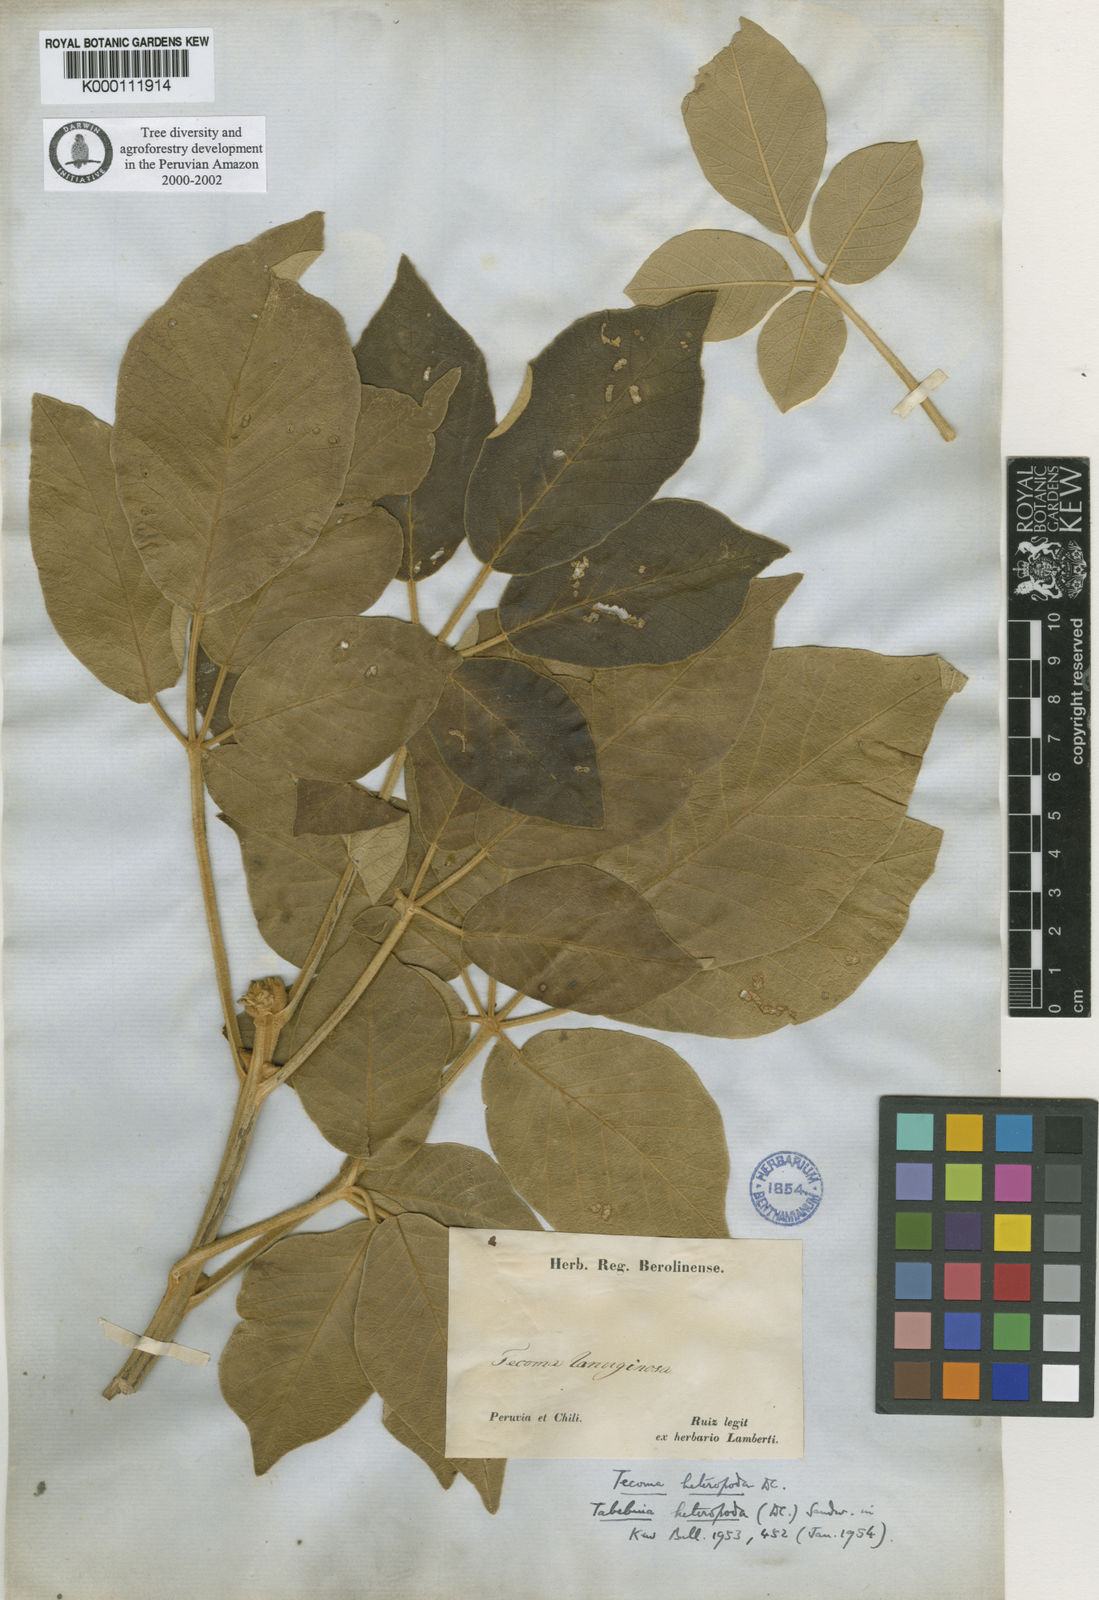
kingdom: Plantae
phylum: Tracheophyta
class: Magnoliopsida
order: Lamiales
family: Bignoniaceae
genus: Handroanthus
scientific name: Handroanthus ochraceus
